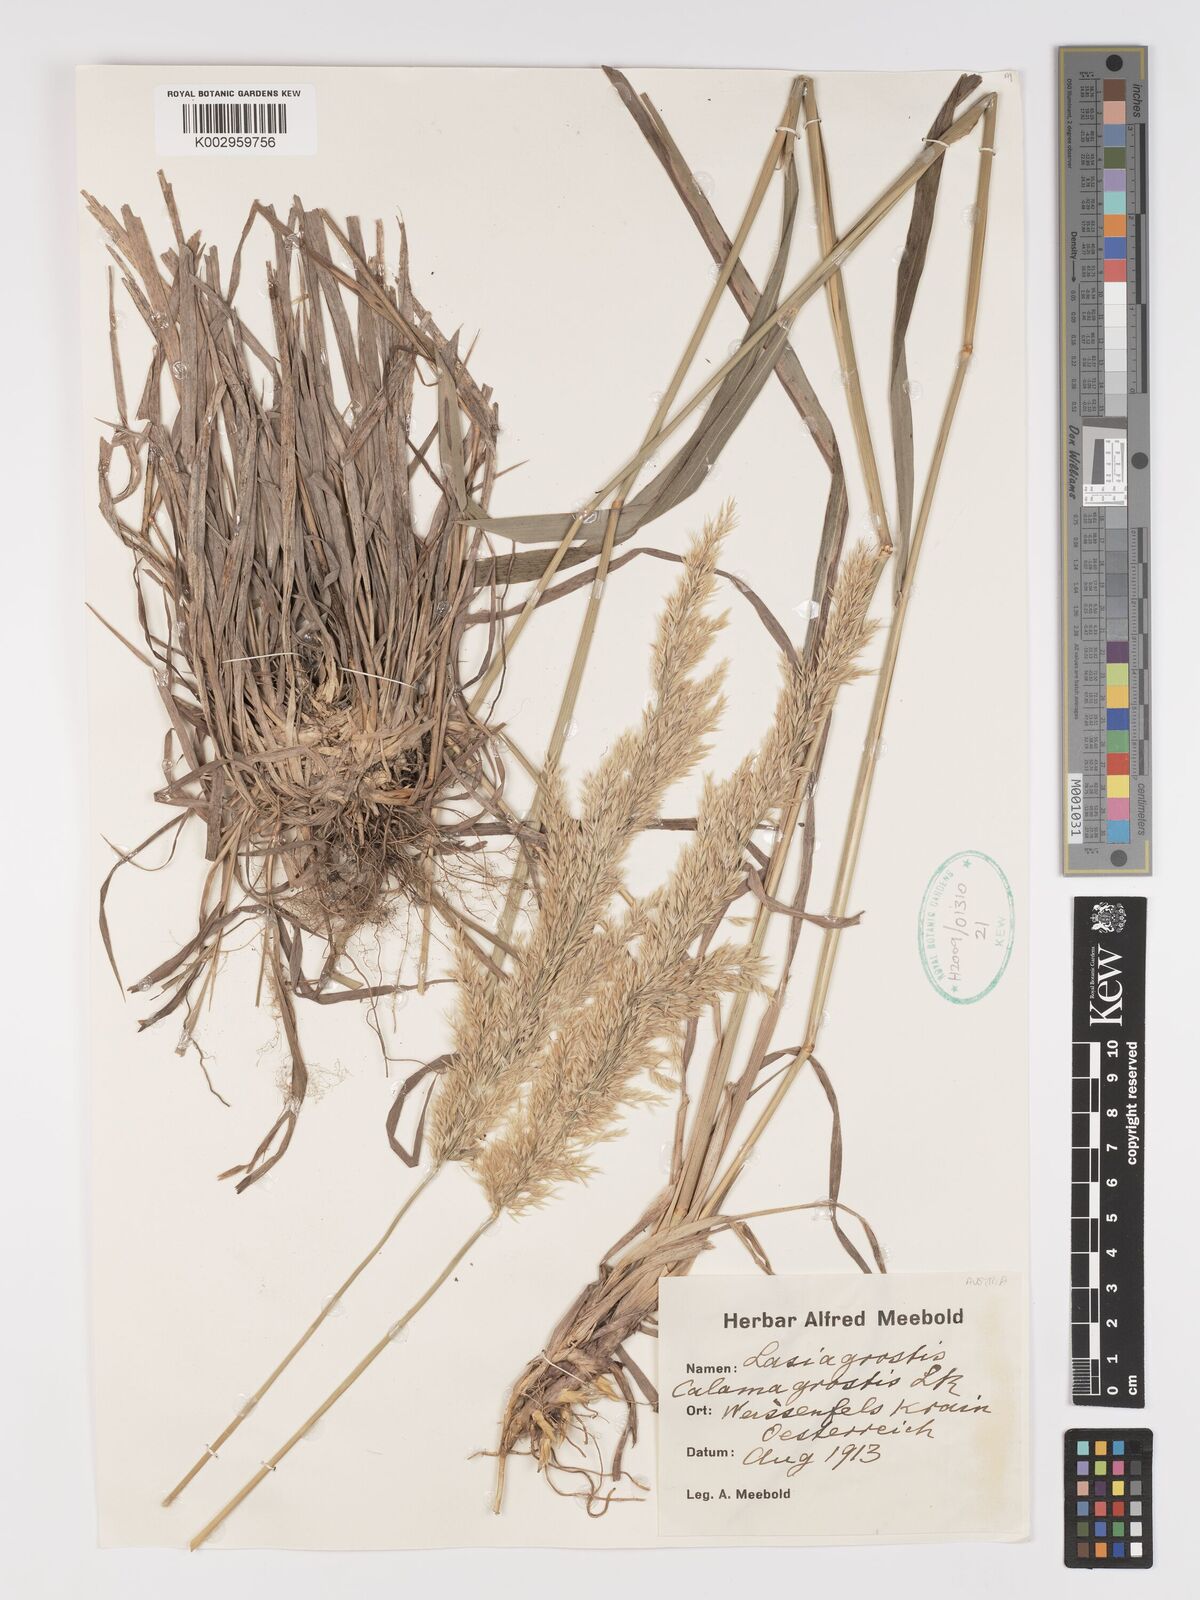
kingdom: Plantae
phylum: Tracheophyta
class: Liliopsida
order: Poales
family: Poaceae
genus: Achnatherum
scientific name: Achnatherum calamagrostis
